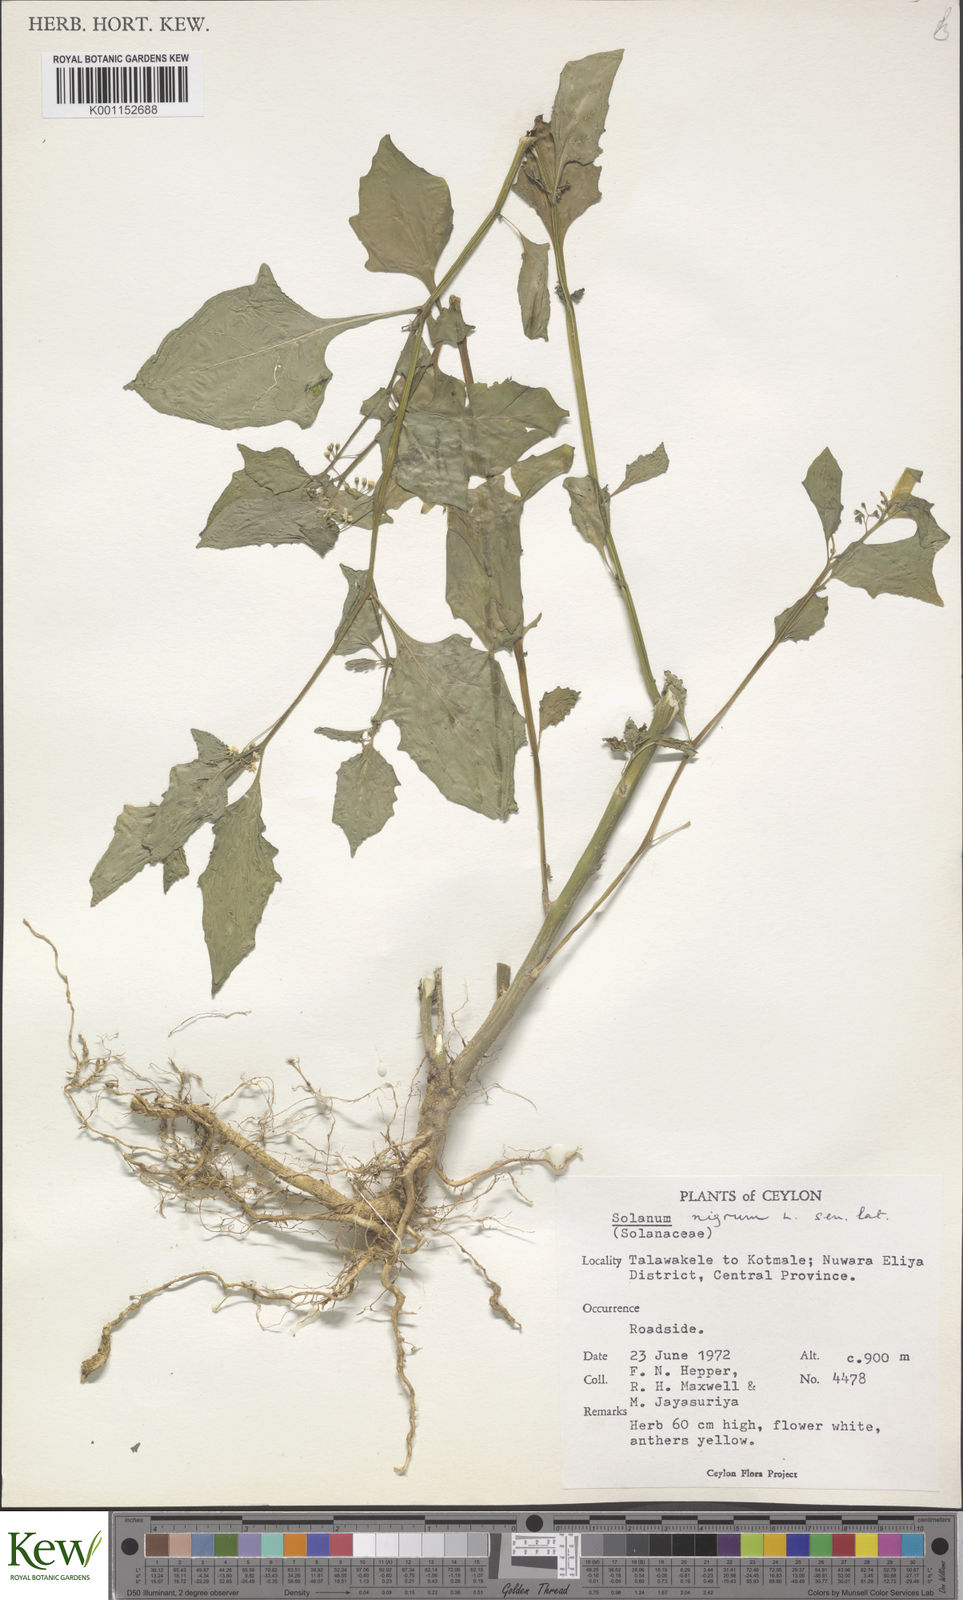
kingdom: Plantae
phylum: Tracheophyta
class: Magnoliopsida
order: Solanales
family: Solanaceae
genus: Solanum
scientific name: Solanum nigrum
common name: Black nightshade
